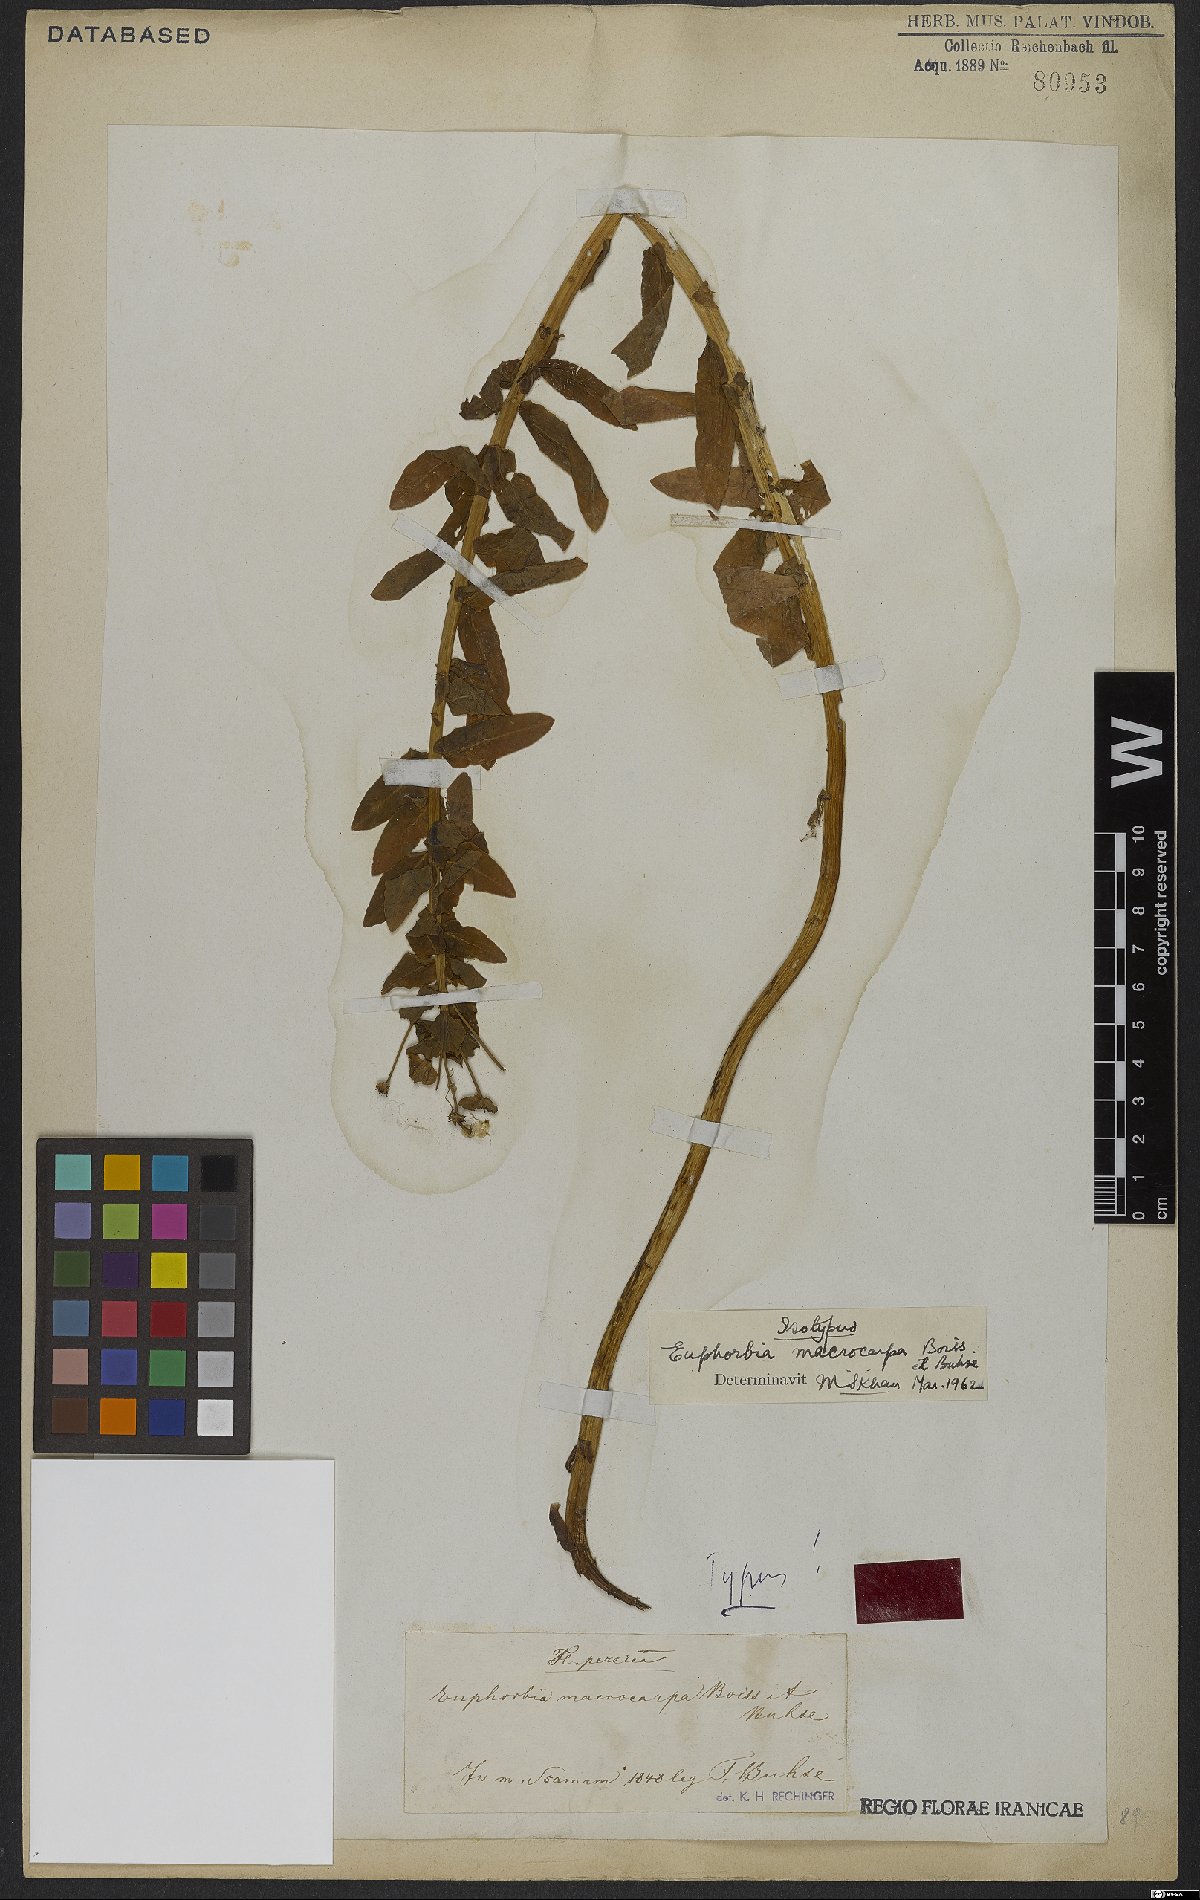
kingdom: Plantae
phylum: Tracheophyta
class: Magnoliopsida
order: Malpighiales
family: Euphorbiaceae
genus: Euphorbia
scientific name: Euphorbia macrocarpa
